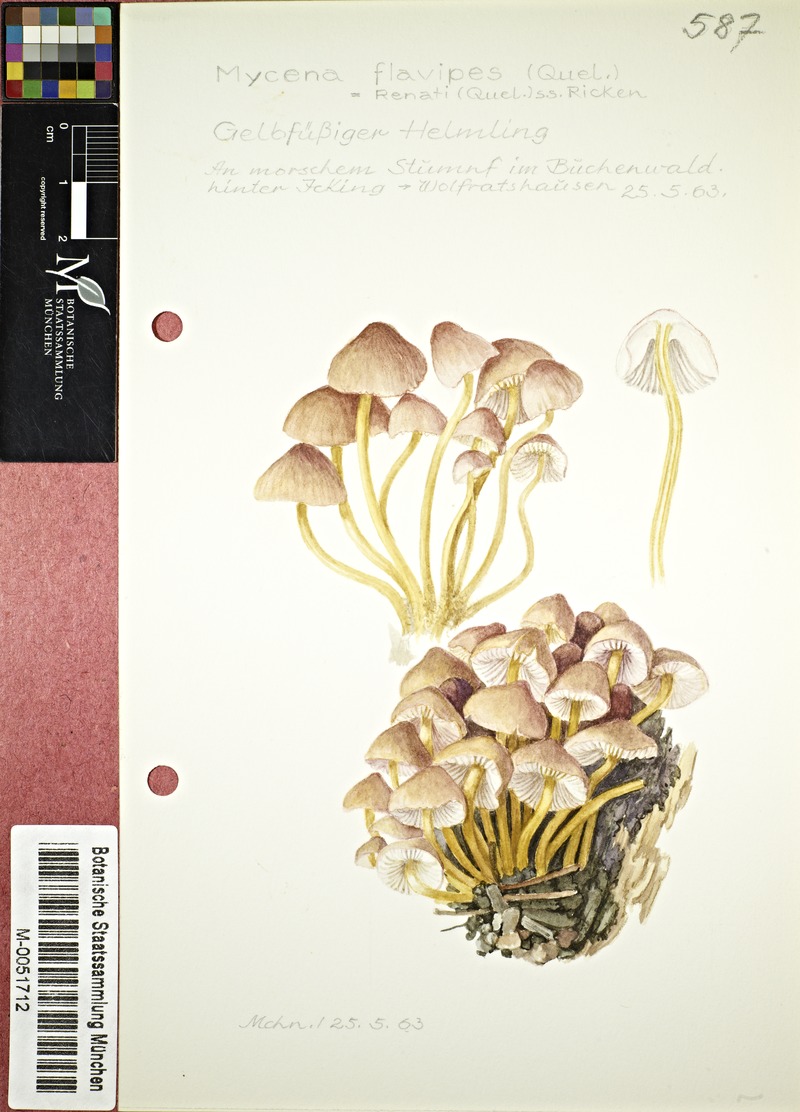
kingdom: Fungi
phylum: Basidiomycota
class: Agaricomycetes
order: Agaricales
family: Mycenaceae
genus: Mycena
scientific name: Mycena renati
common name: Beautiful bonnet
